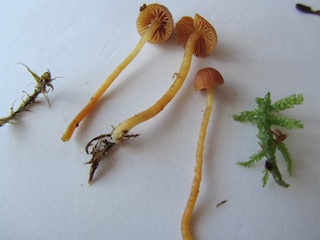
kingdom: Fungi
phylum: Basidiomycota
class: Agaricomycetes
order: Agaricales
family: Hymenogastraceae
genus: Galerina
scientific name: Galerina calyptrata
